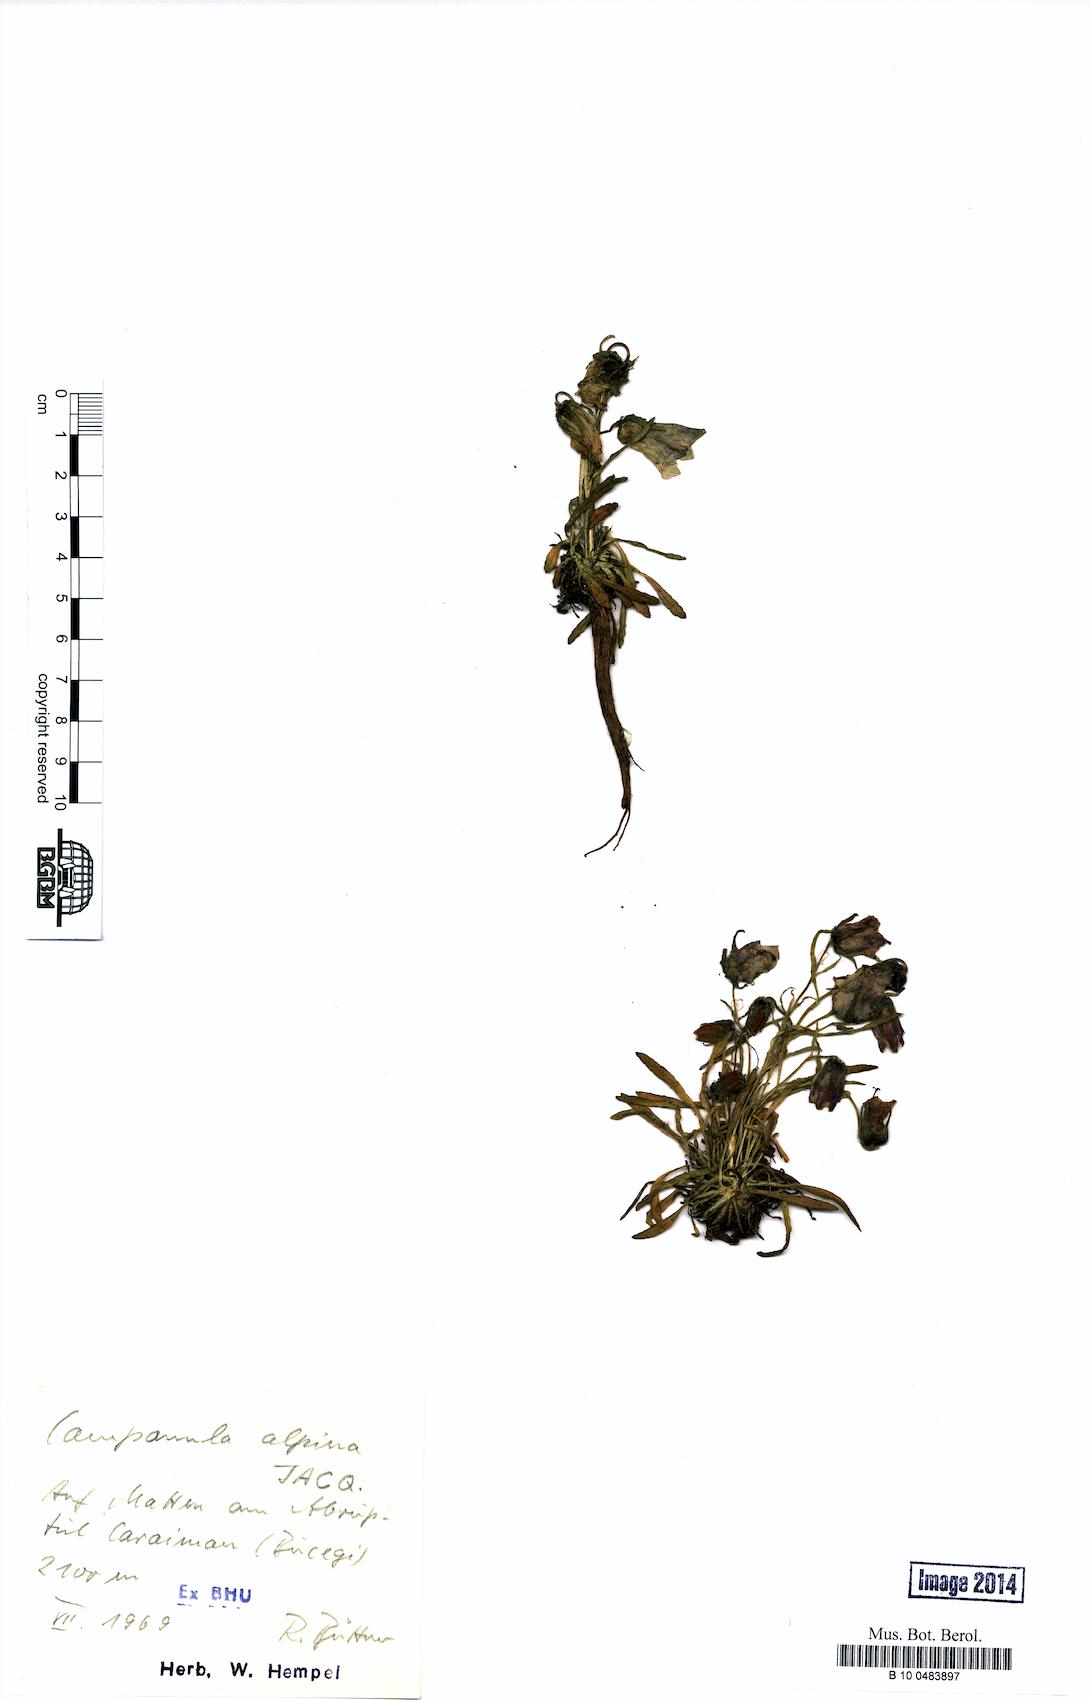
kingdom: Plantae
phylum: Tracheophyta
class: Magnoliopsida
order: Asterales
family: Campanulaceae
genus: Campanula
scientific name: Campanula alpina
